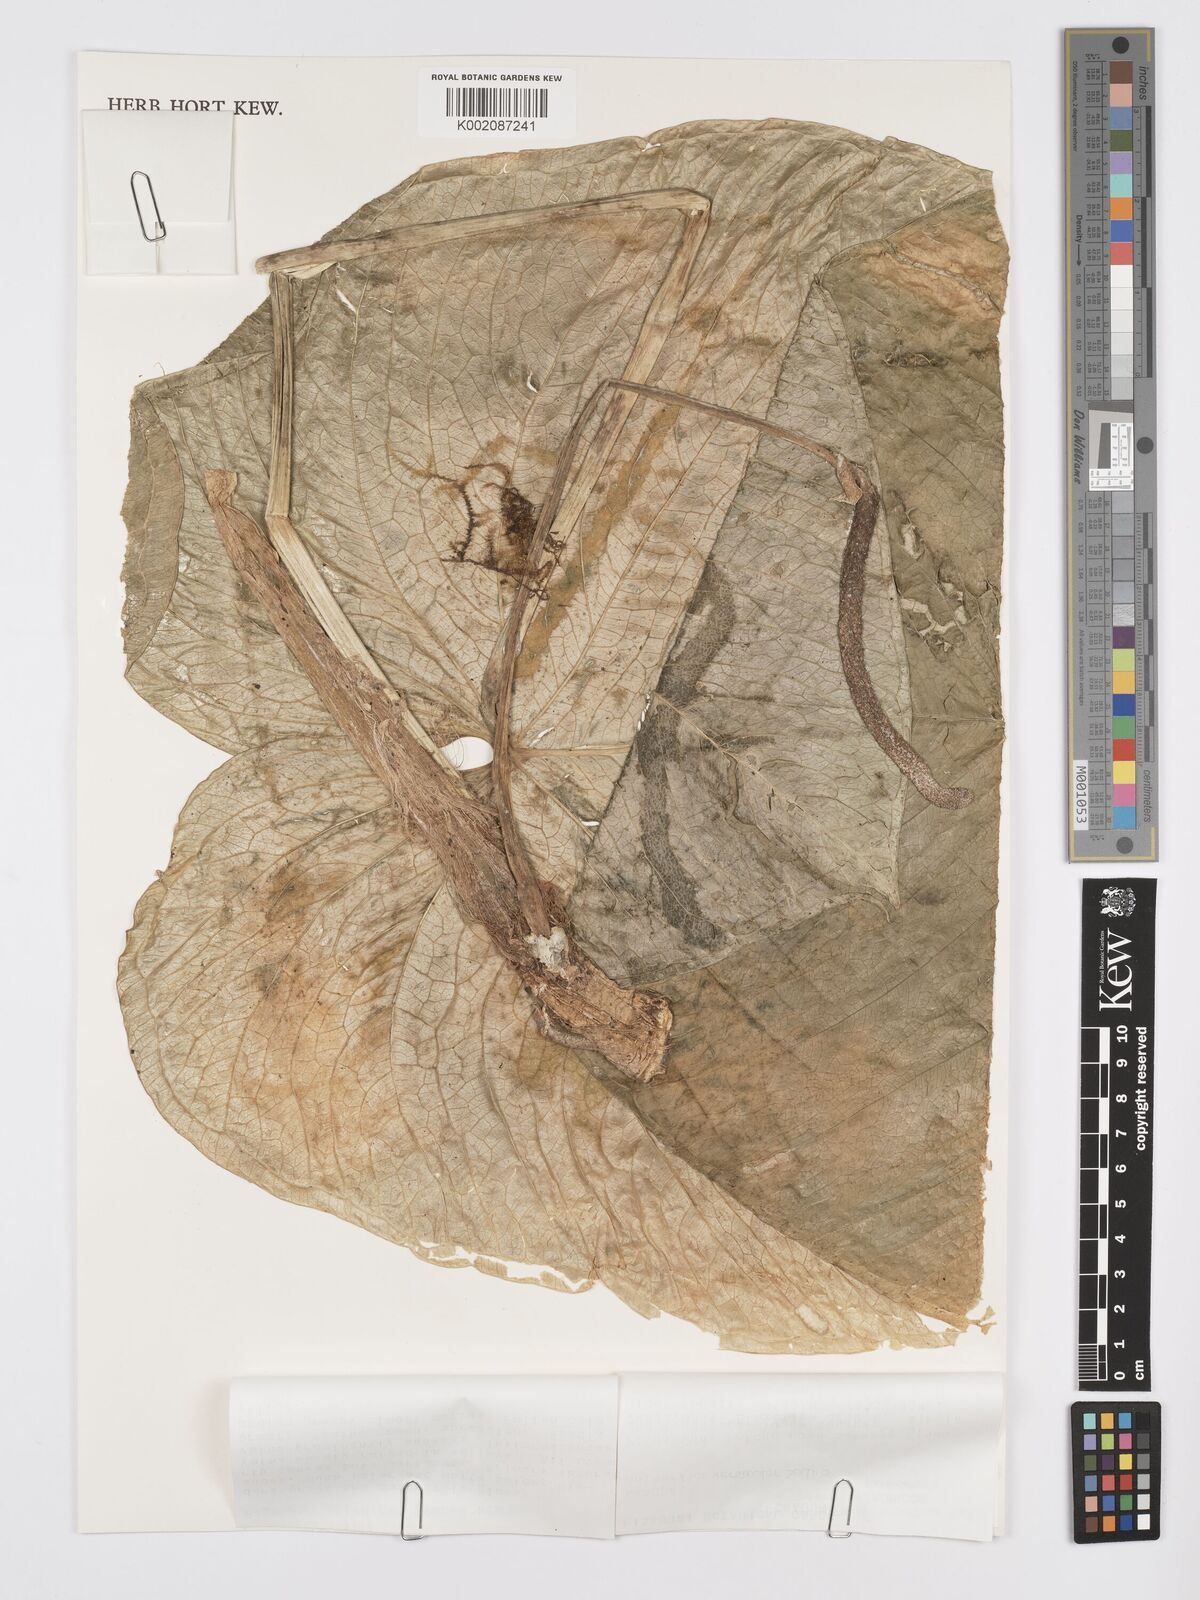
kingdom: Plantae
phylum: Tracheophyta
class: Liliopsida
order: Alismatales
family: Araceae
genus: Anthurium
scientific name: Anthurium versicolor
